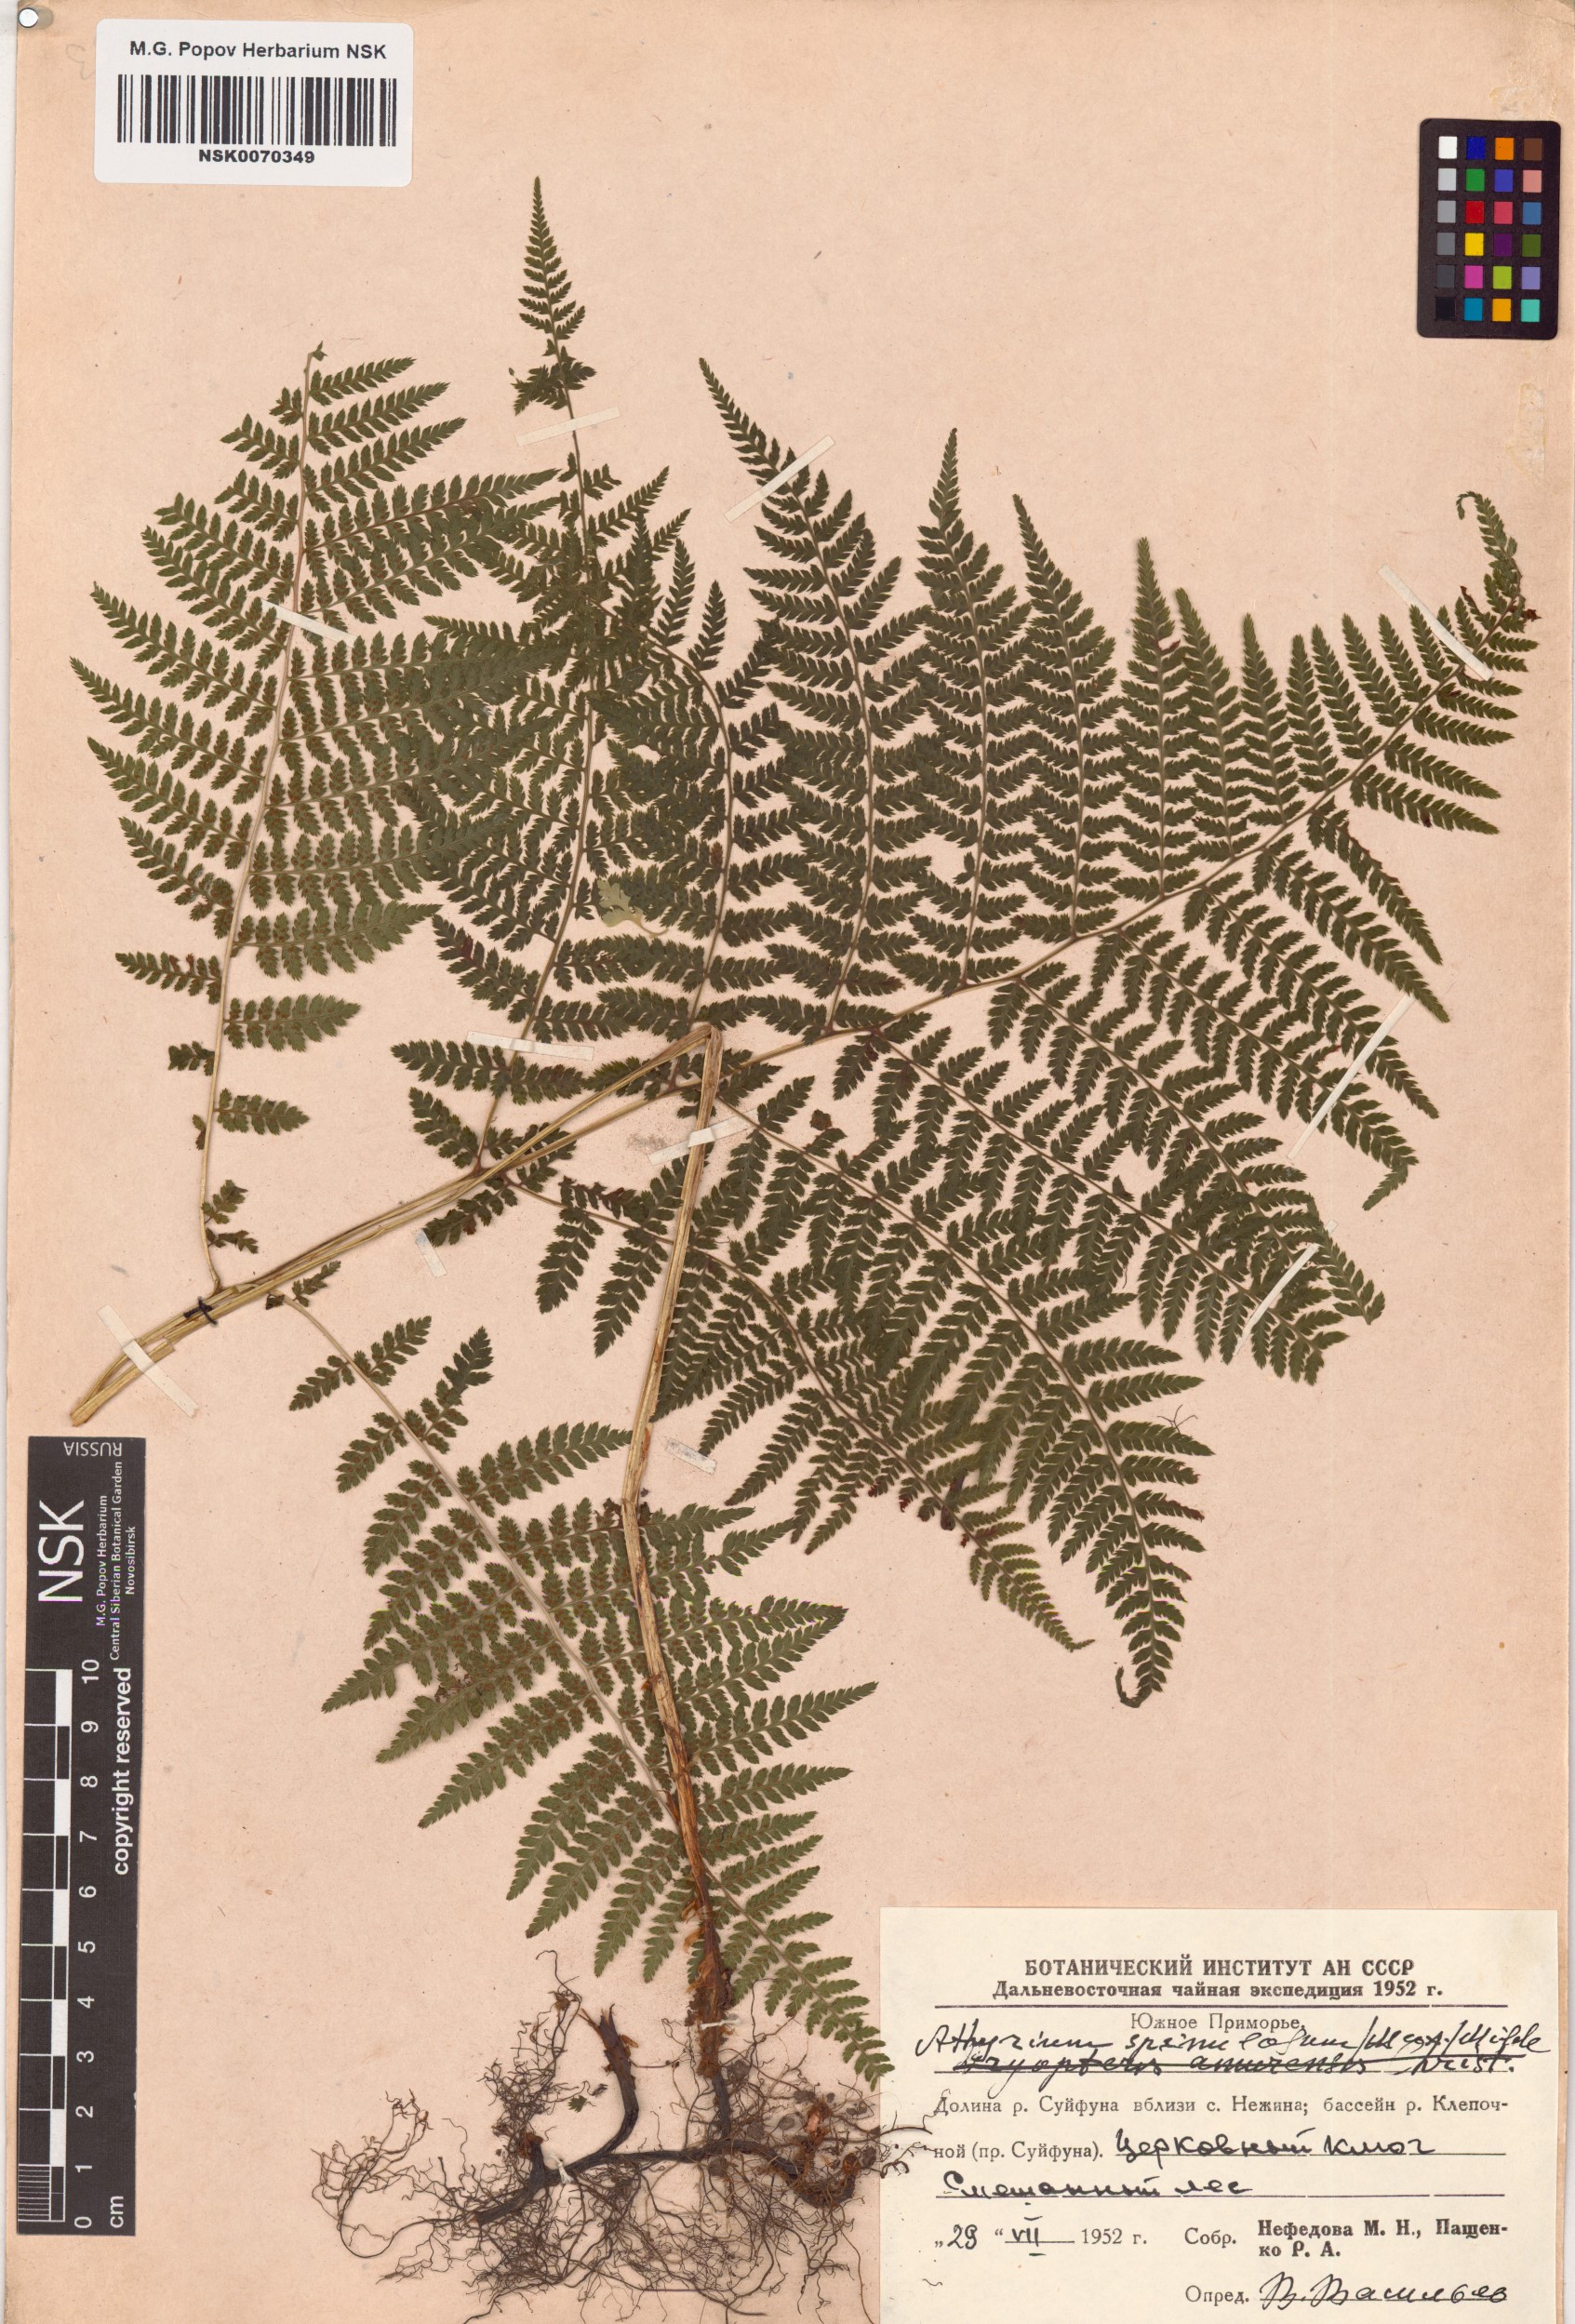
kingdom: Plantae
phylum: Tracheophyta
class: Polypodiopsida
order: Polypodiales
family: Athyriaceae
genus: Athyrium
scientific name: Athyrium spinulosum
